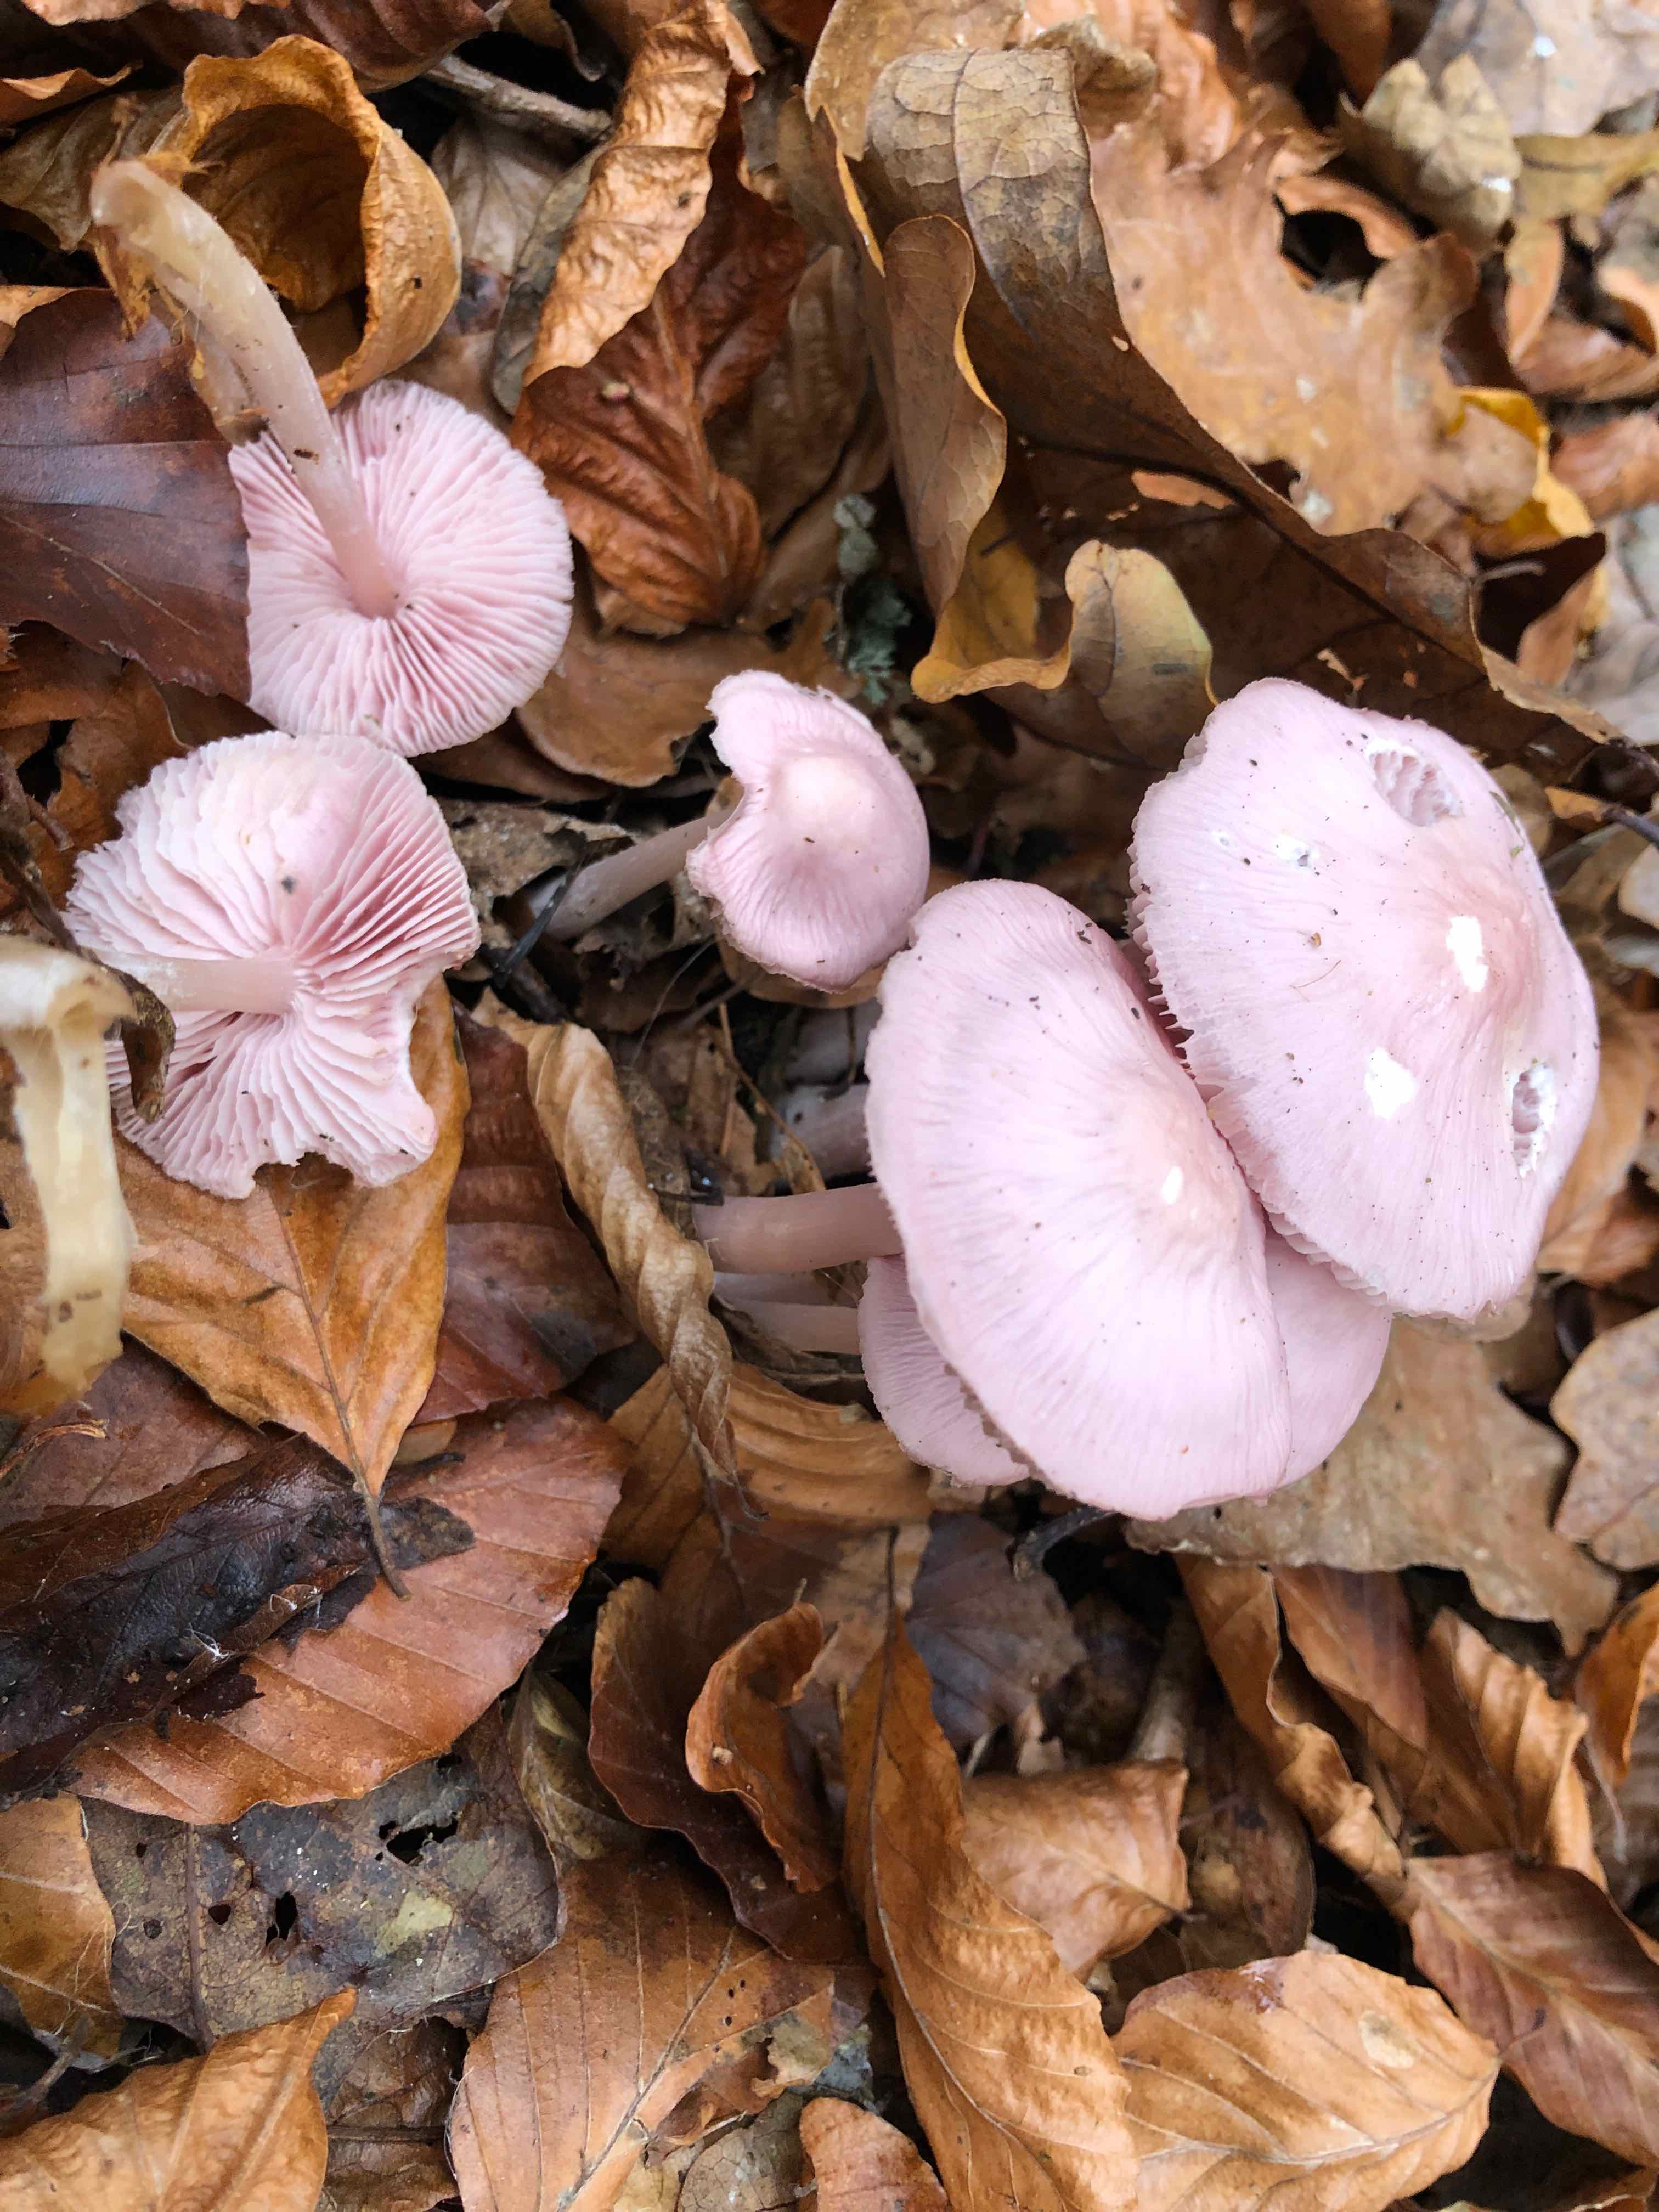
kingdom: Fungi
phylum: Basidiomycota
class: Agaricomycetes
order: Agaricales
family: Mycenaceae
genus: Mycena
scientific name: Mycena rosea
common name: rosa huesvamp
